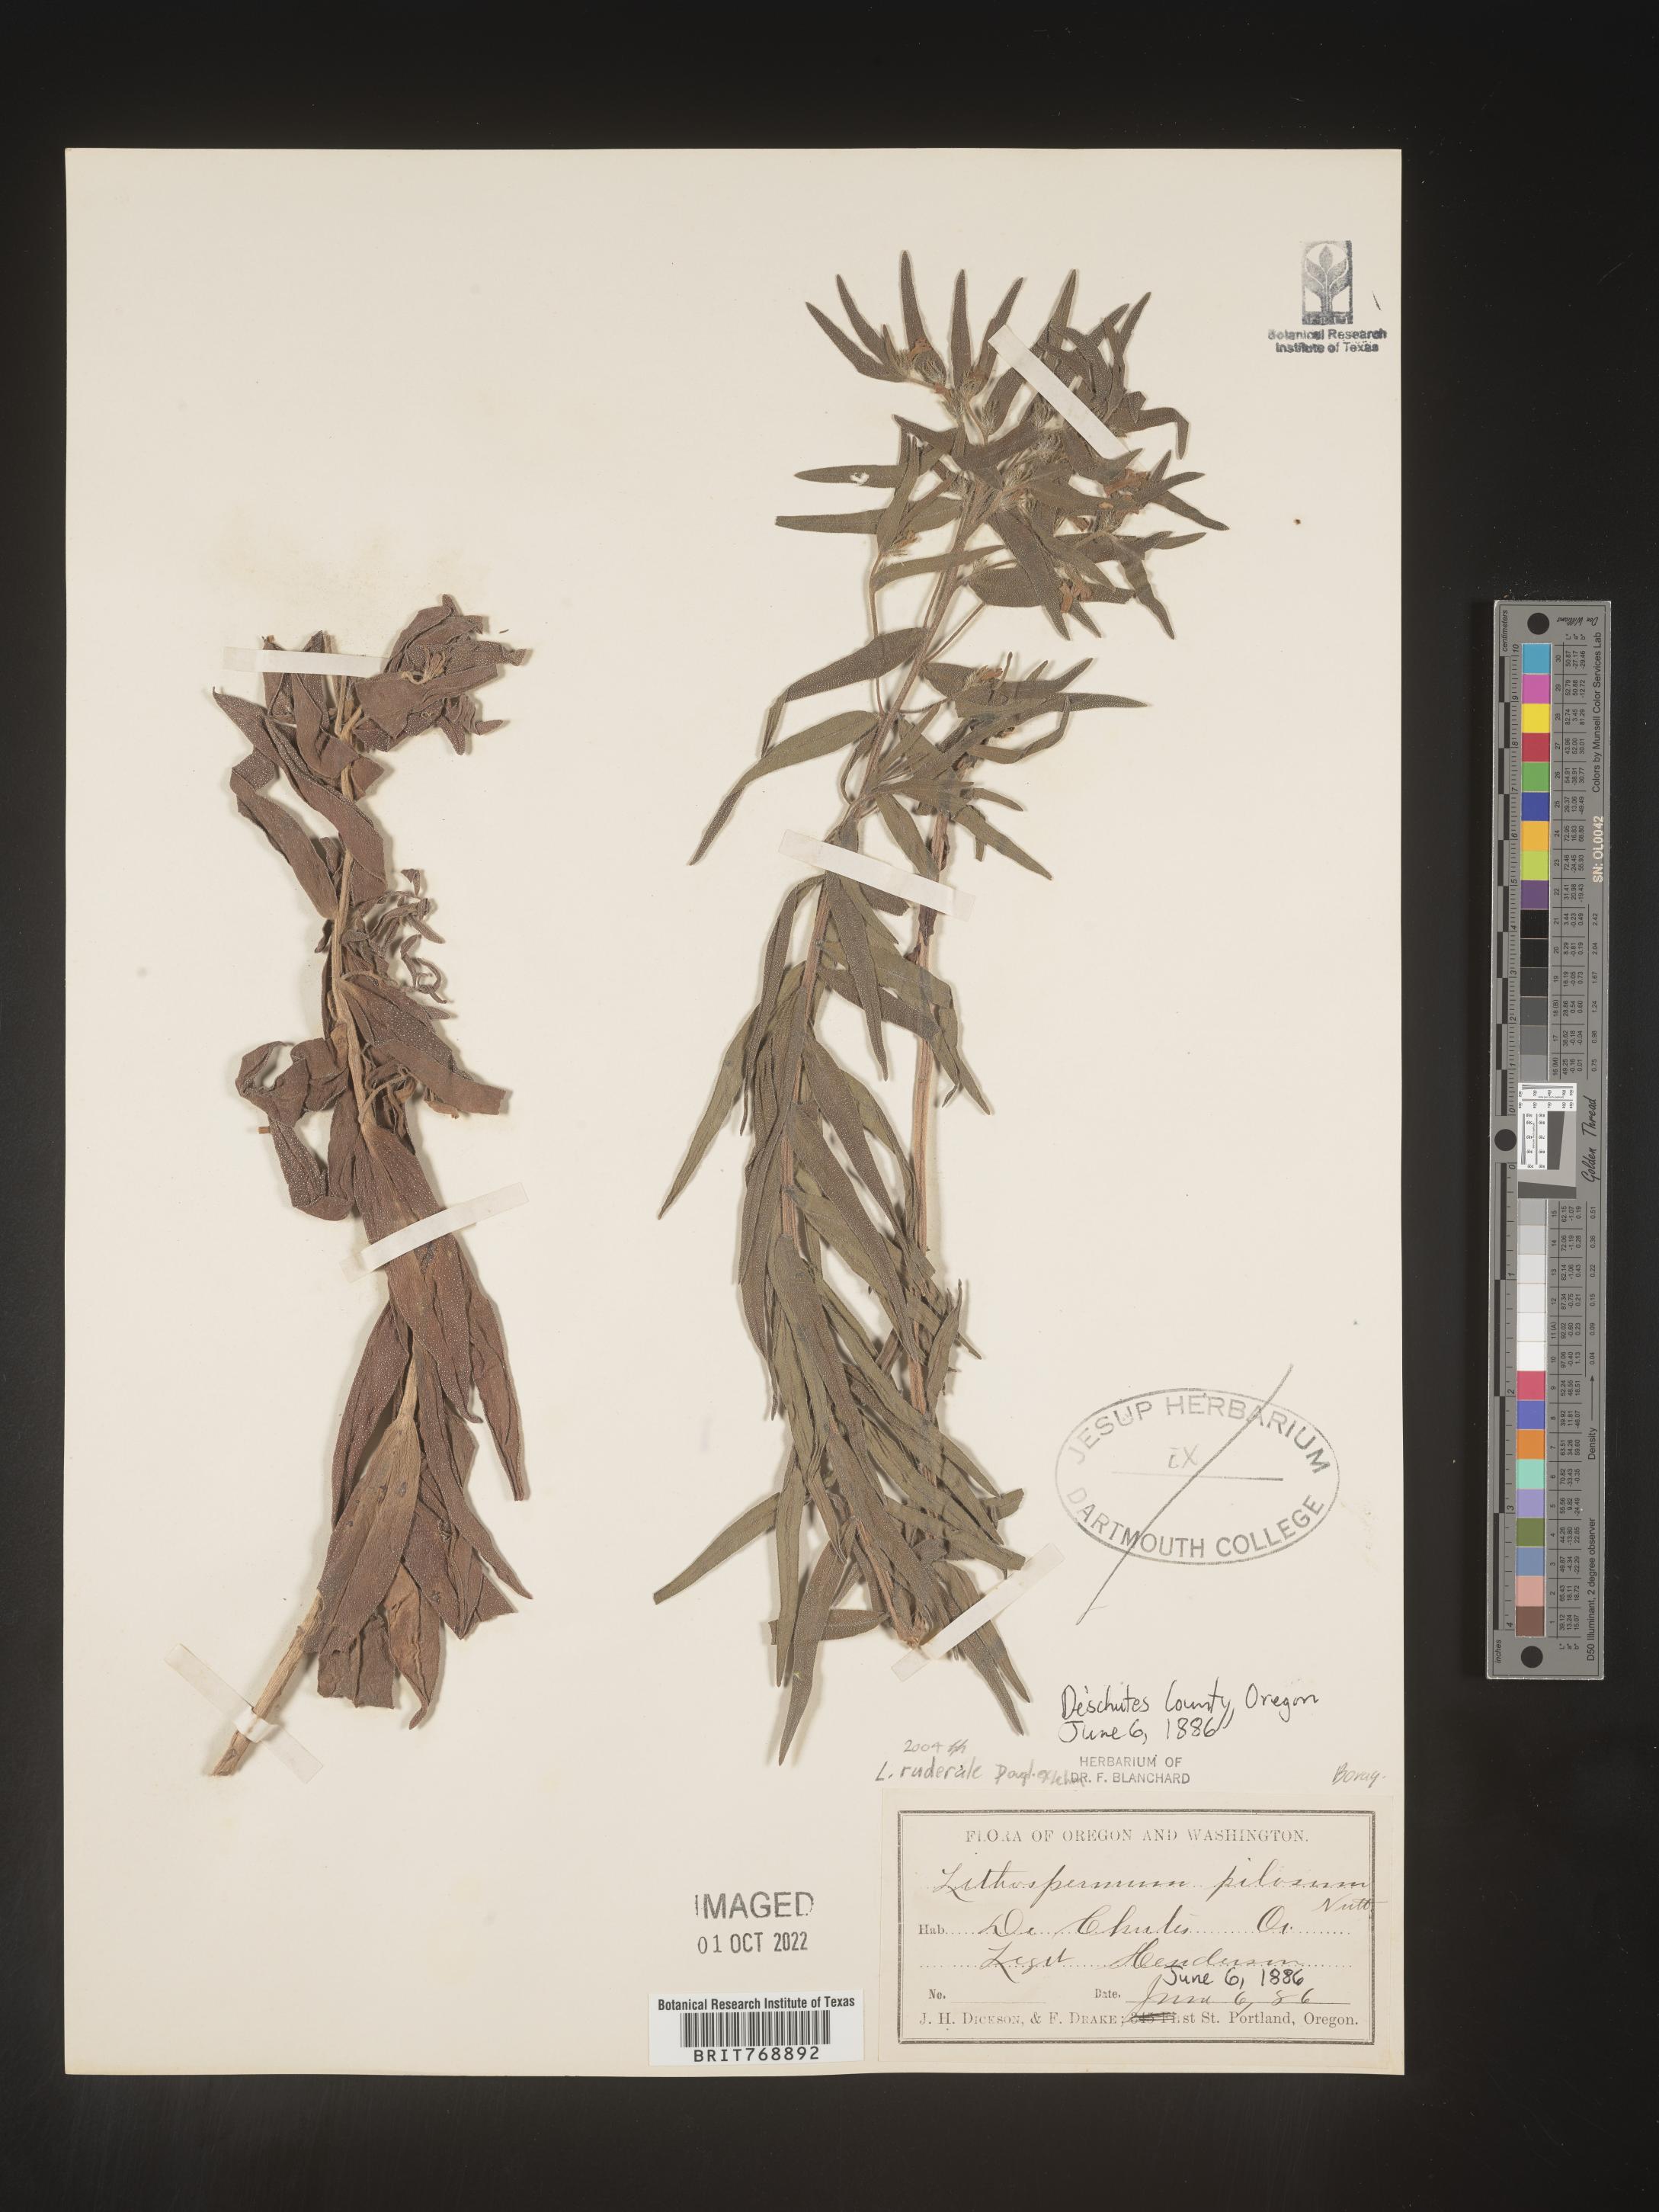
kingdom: Plantae
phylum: Tracheophyta
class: Magnoliopsida
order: Boraginales
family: Boraginaceae
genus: Lithospermum
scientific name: Lithospermum
